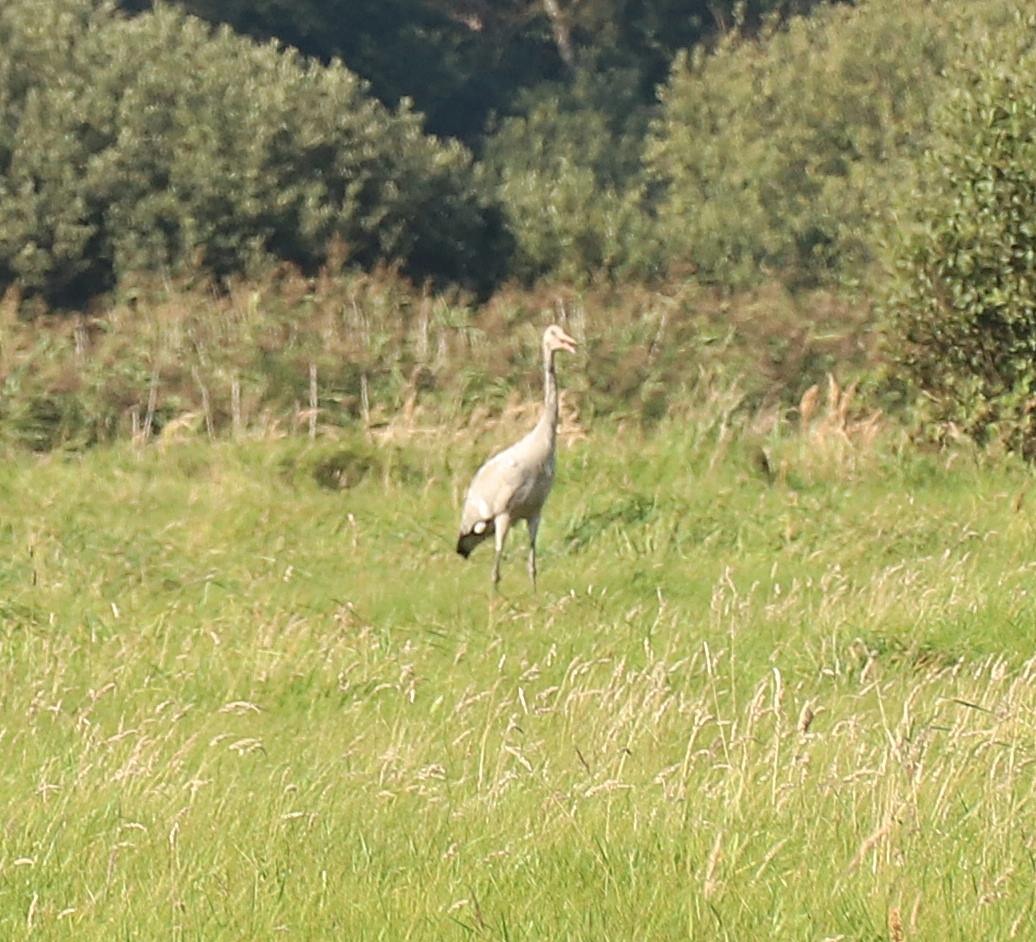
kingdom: Animalia
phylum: Chordata
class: Aves
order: Gruiformes
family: Gruidae
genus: Grus
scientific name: Grus grus
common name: Trane
